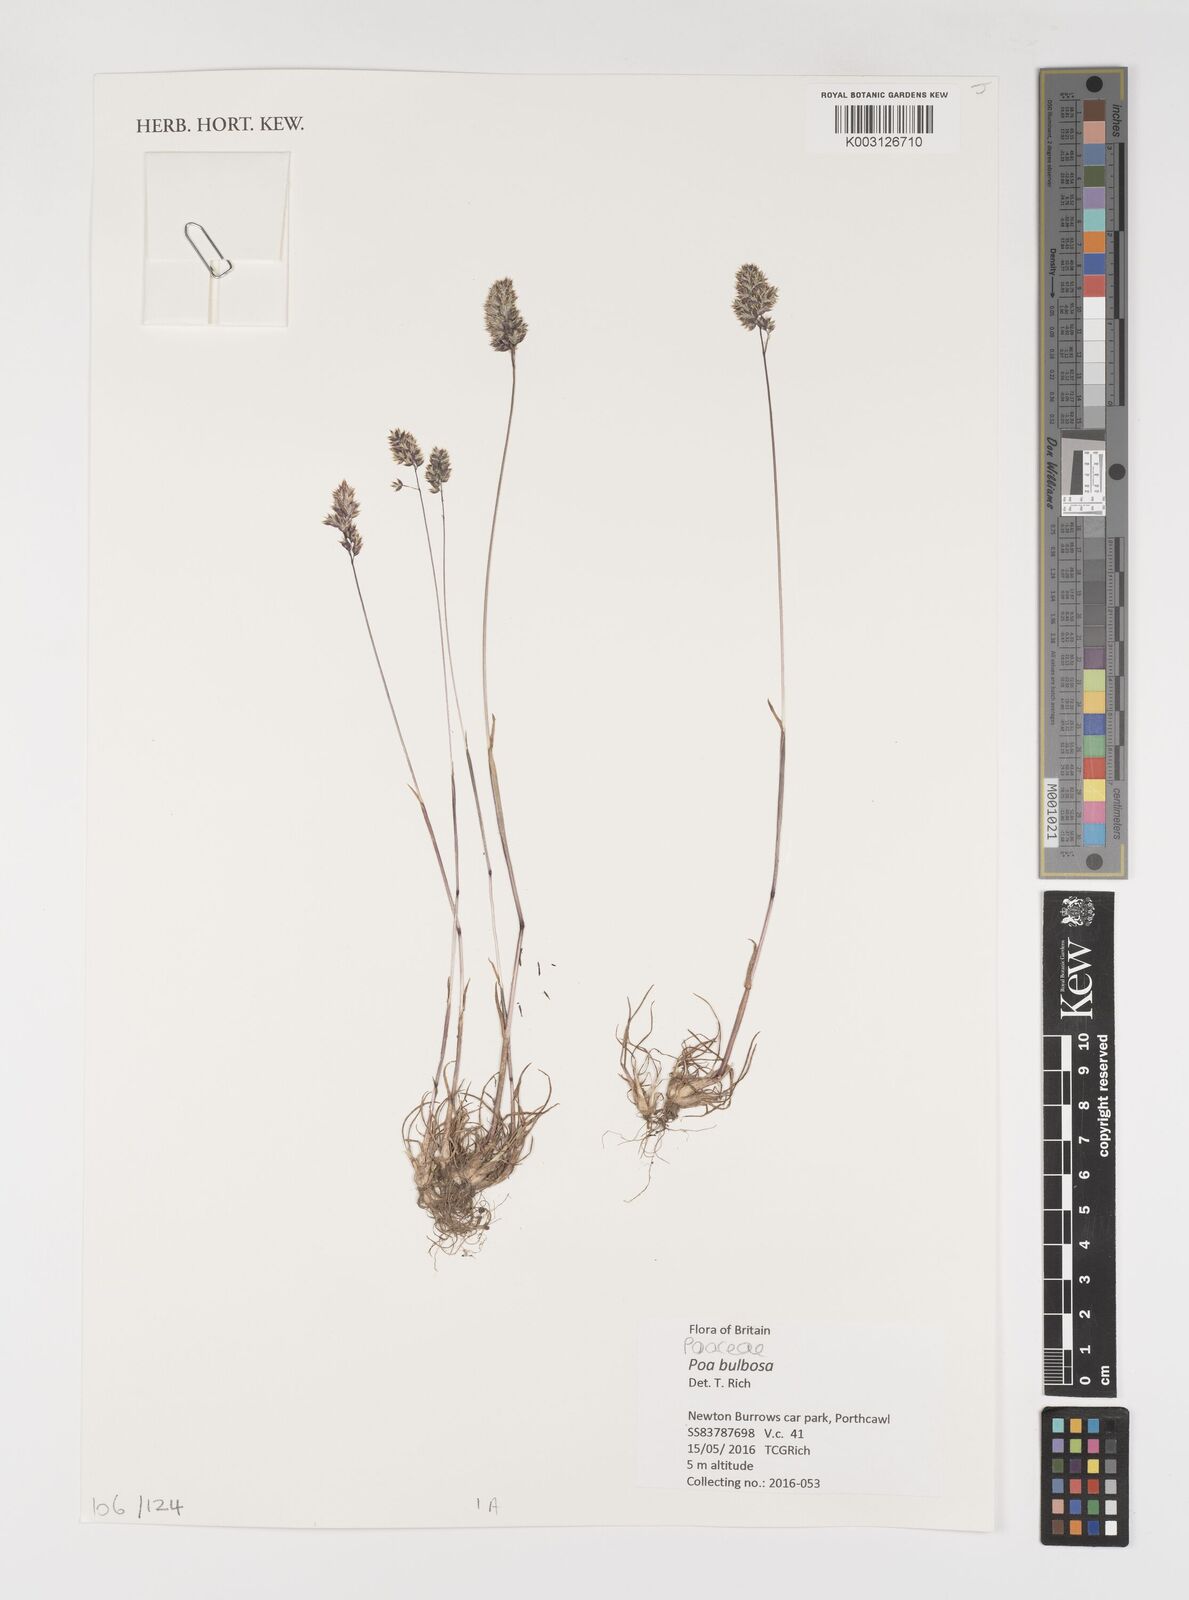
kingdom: Plantae
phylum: Tracheophyta
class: Liliopsida
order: Poales
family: Poaceae
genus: Poa
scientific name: Poa bulbosa
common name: Bulbous bluegrass
